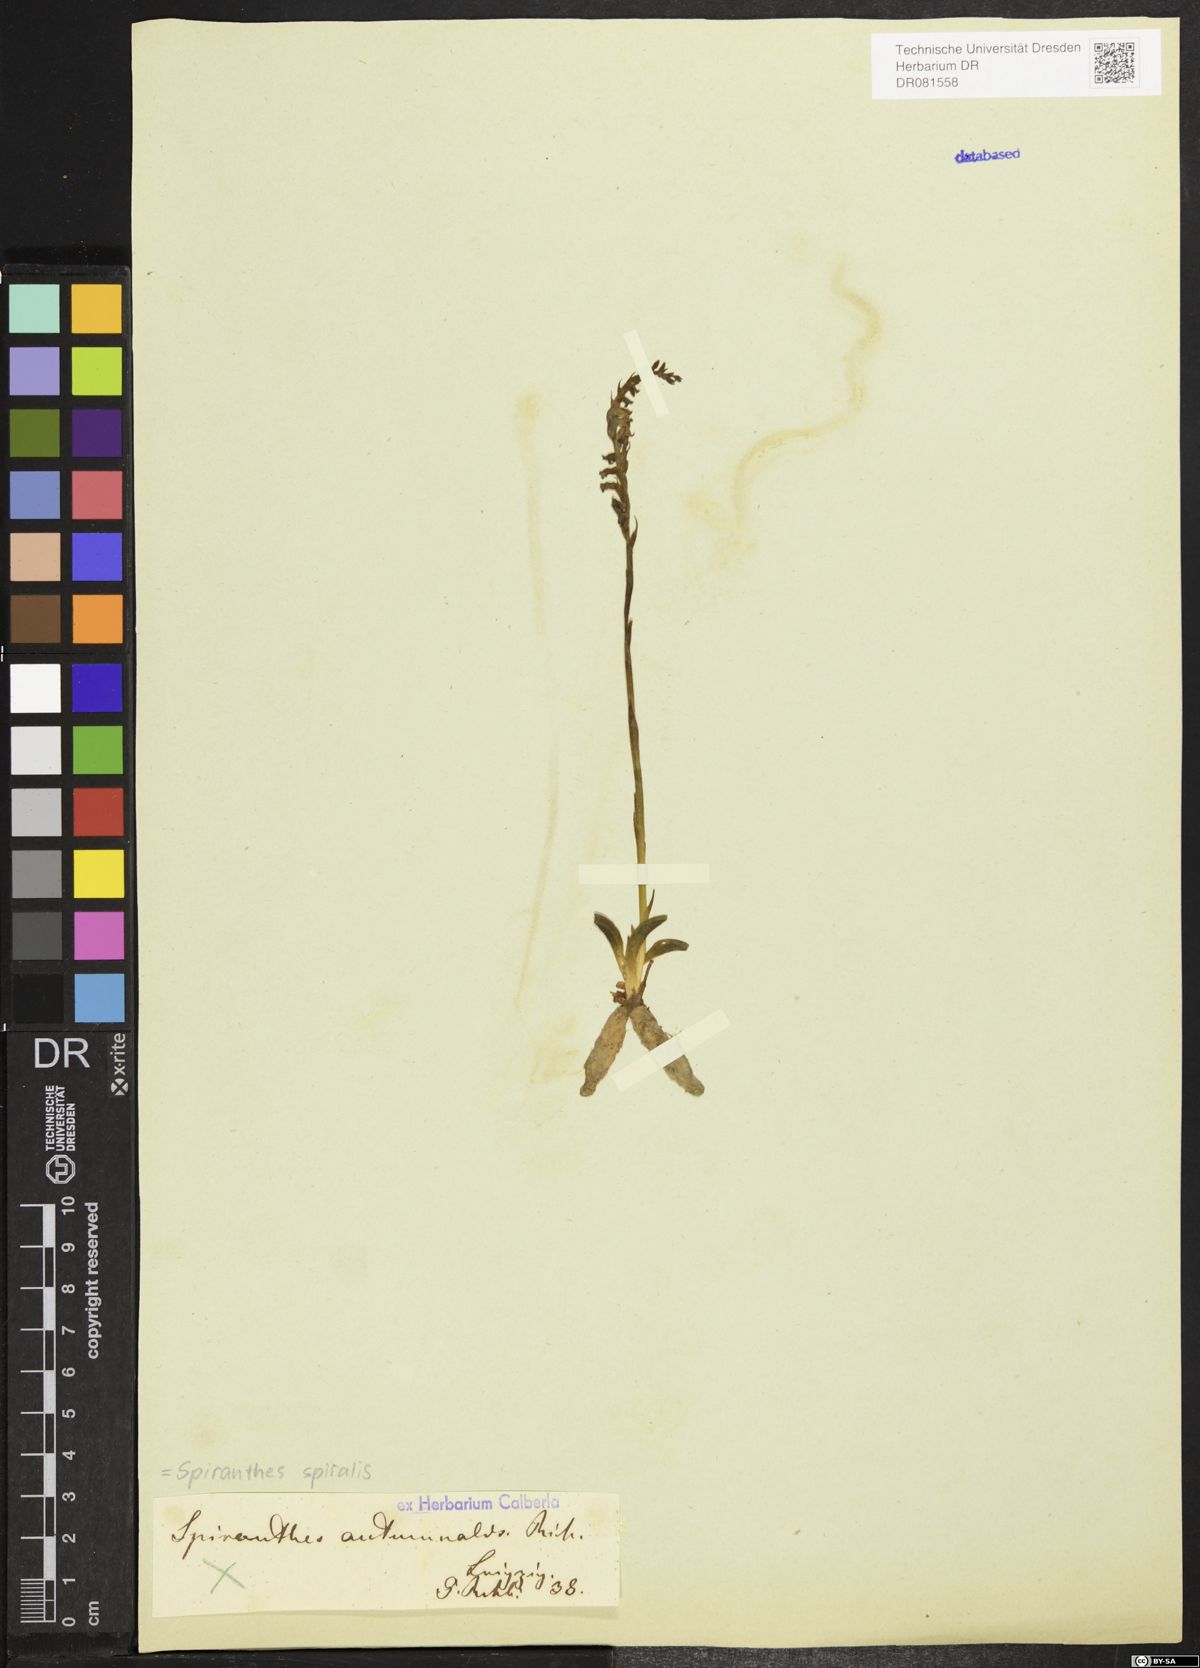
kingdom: Plantae
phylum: Tracheophyta
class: Liliopsida
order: Asparagales
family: Orchidaceae
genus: Spiranthes
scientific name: Spiranthes spiralis
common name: Autumn lady's-tresses
